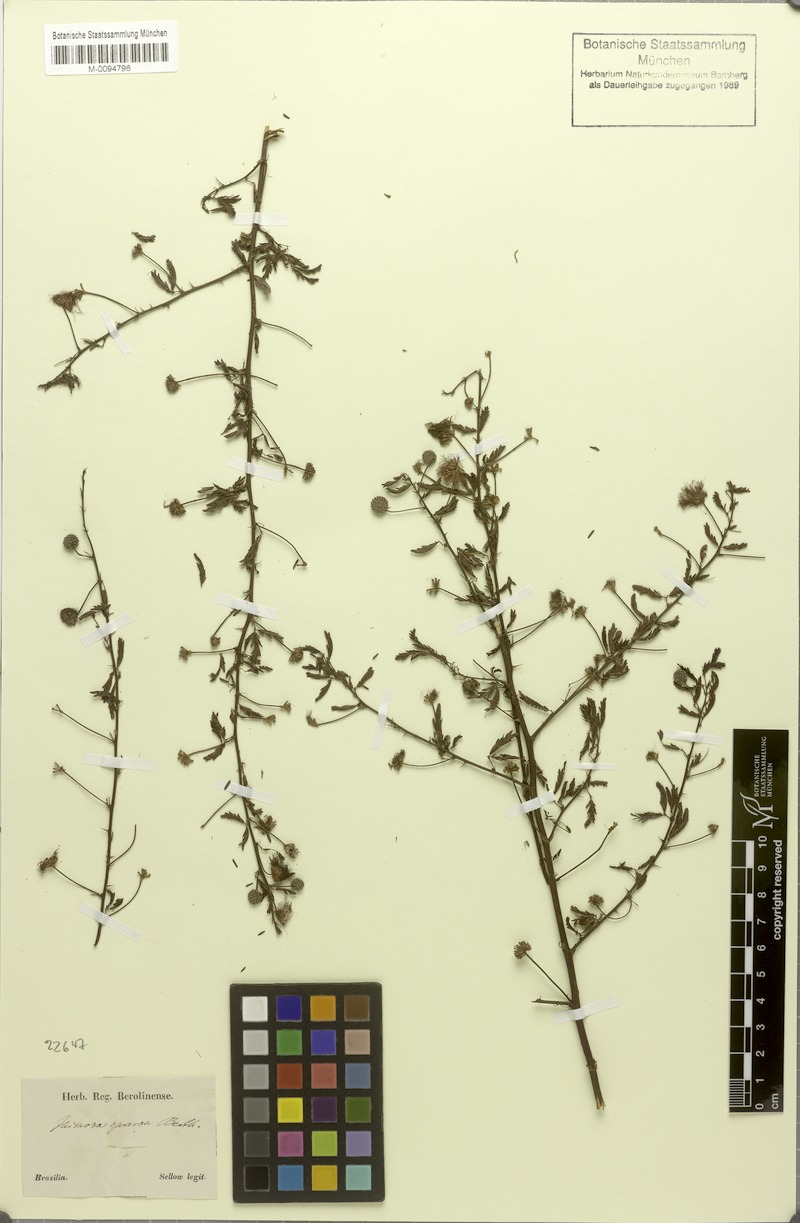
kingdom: Plantae
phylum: Tracheophyta
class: Magnoliopsida
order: Fabales
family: Fabaceae
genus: Mimosa
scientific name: Mimosa sparsa
